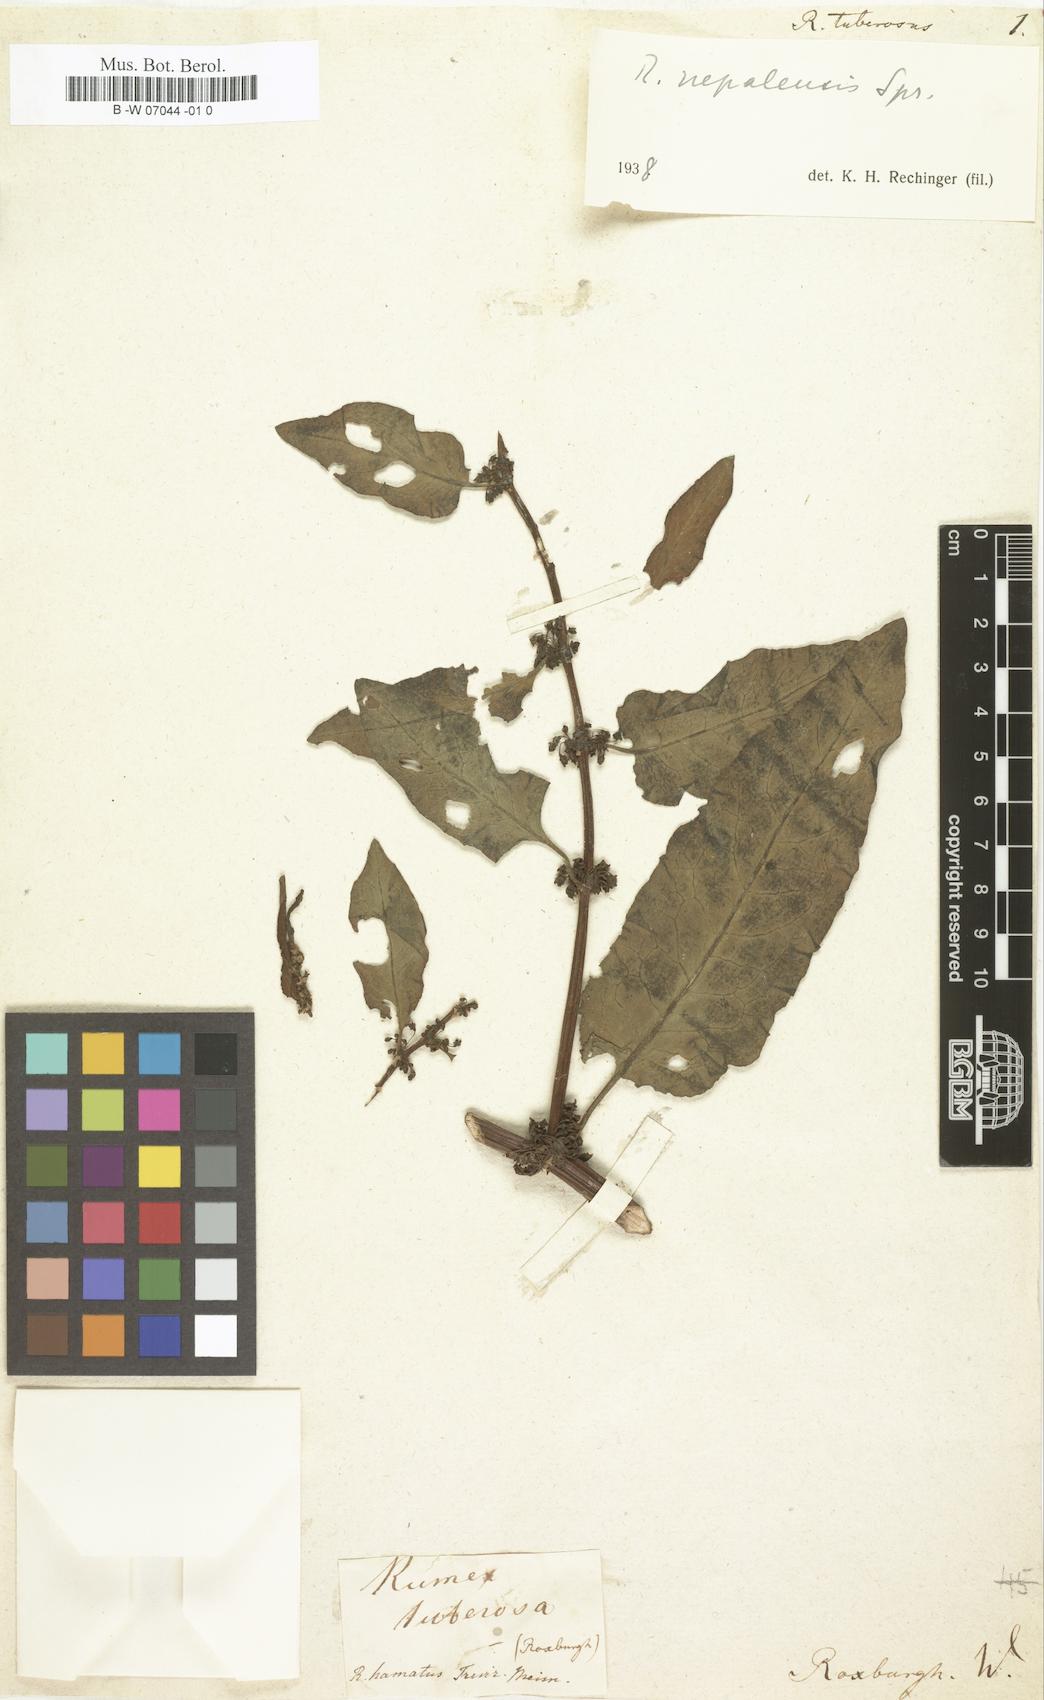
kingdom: Plantae
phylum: Tracheophyta
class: Magnoliopsida
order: Caryophyllales
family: Polygonaceae
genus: Rumex
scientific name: Rumex tuberosus
